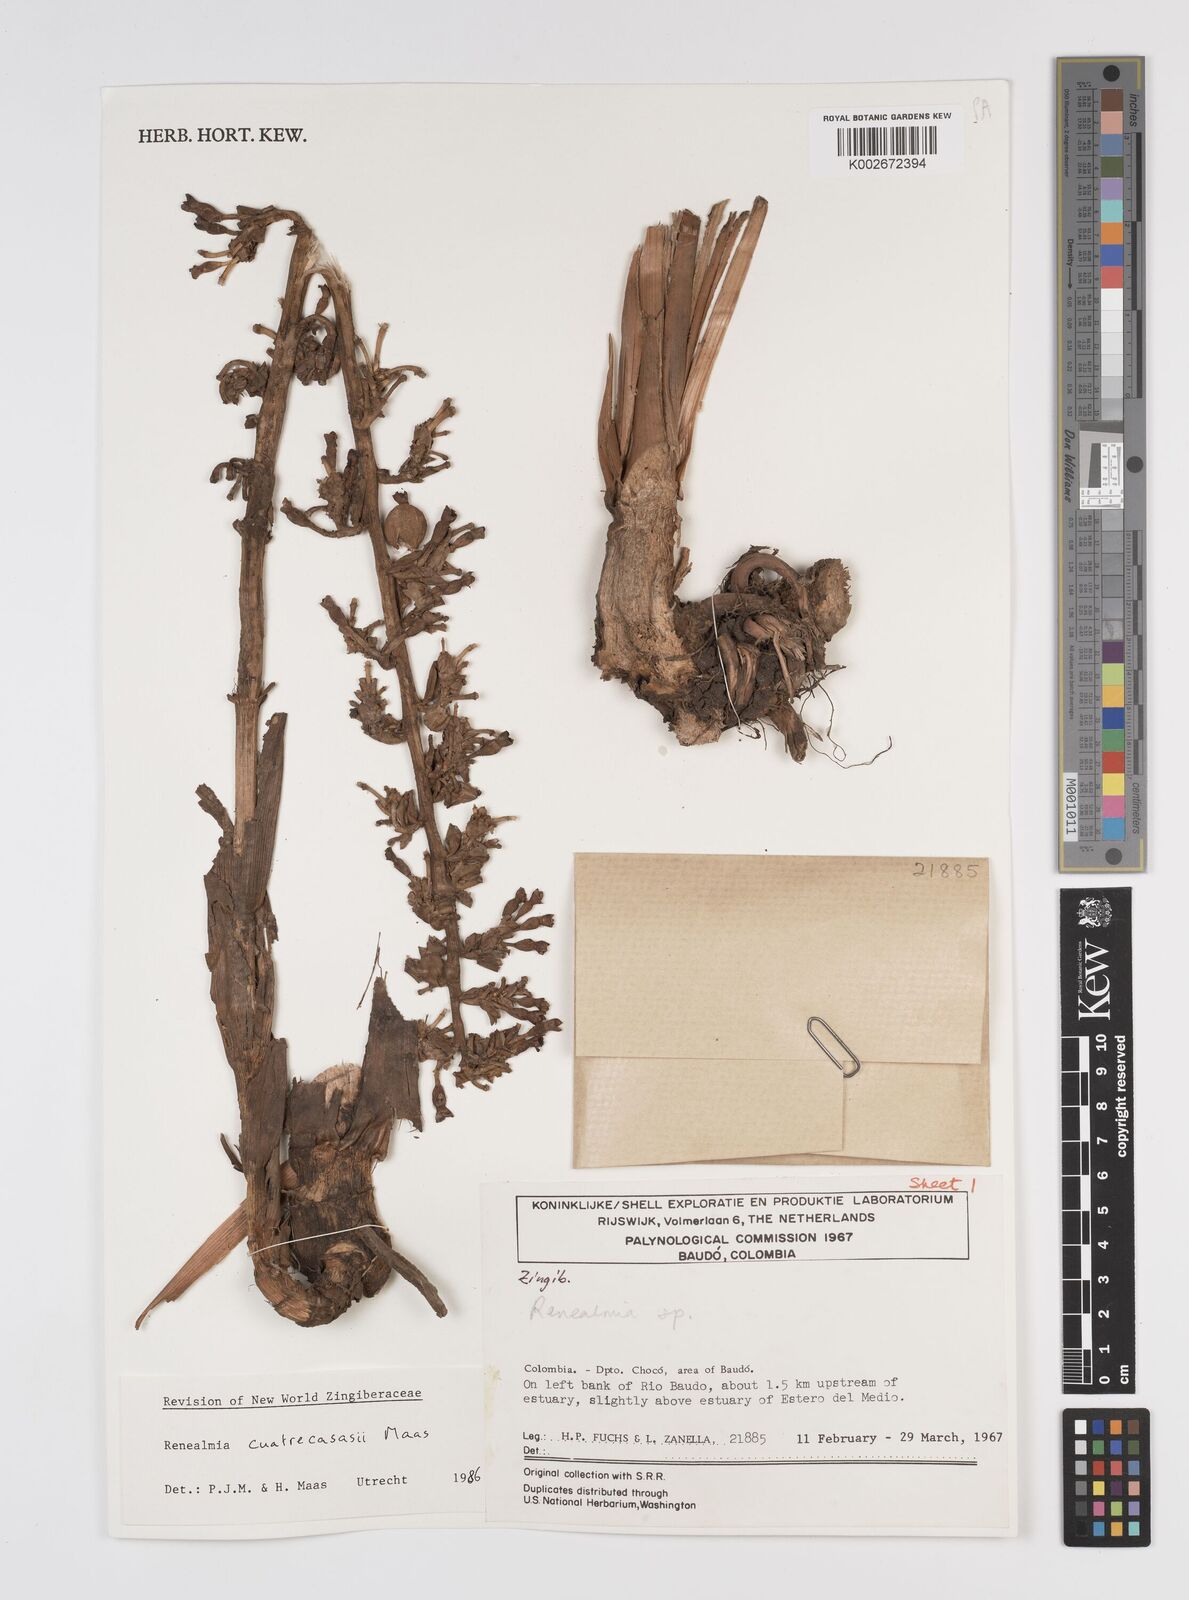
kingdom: Plantae
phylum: Tracheophyta
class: Liliopsida
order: Zingiberales
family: Zingiberaceae
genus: Renealmia
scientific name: Renealmia cuatrecasasii
